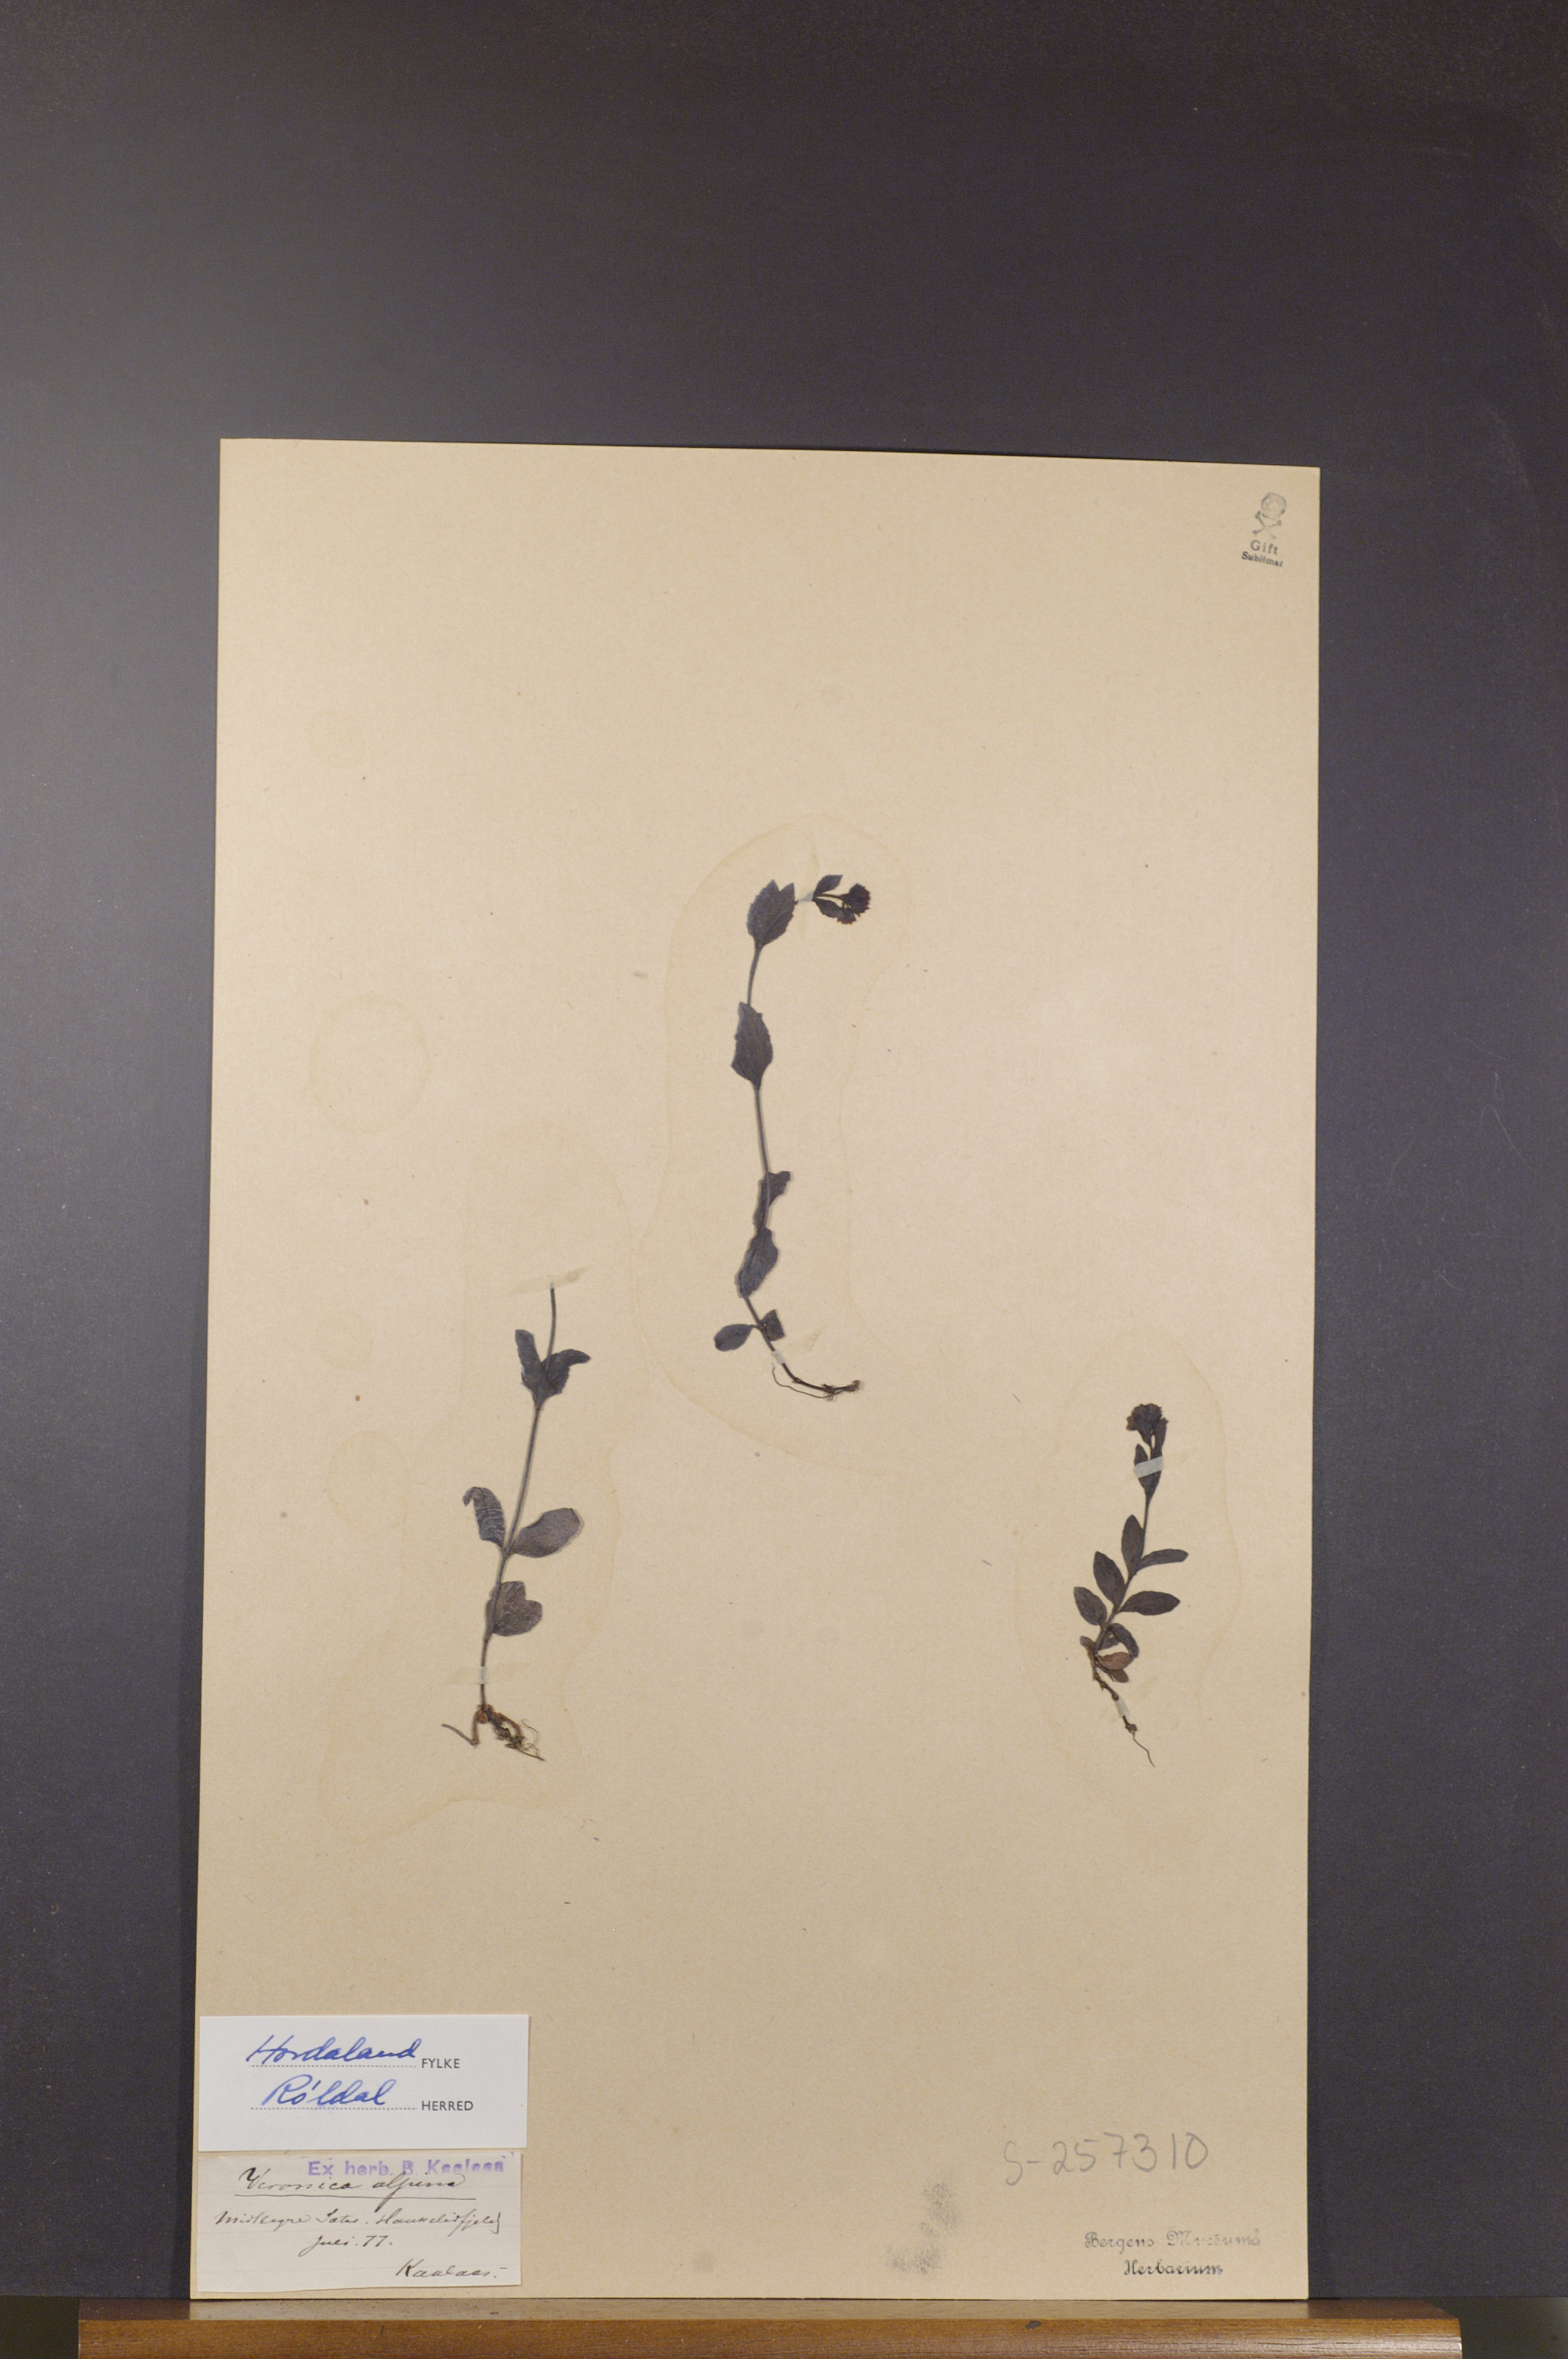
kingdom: Plantae
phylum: Tracheophyta
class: Magnoliopsida
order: Lamiales
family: Plantaginaceae
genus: Veronica
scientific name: Veronica alpina
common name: Alpine speedwell
